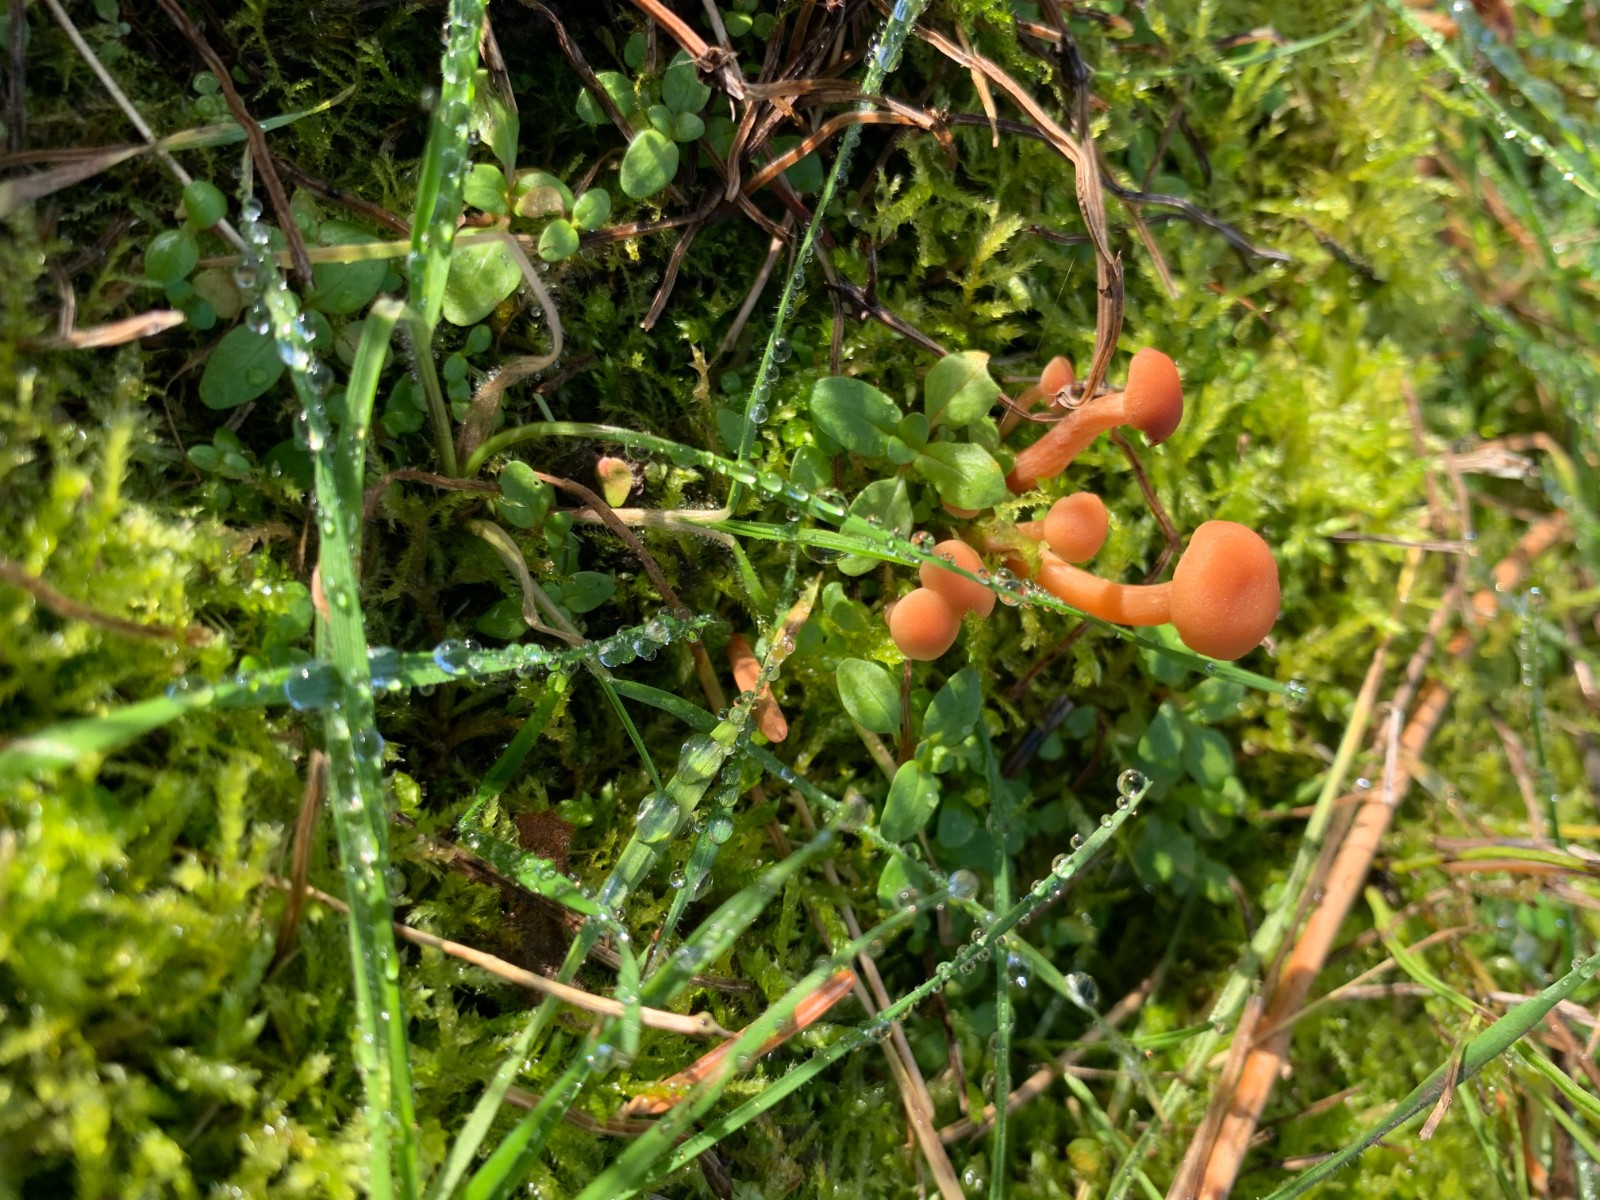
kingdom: Fungi
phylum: Basidiomycota
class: Agaricomycetes
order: Agaricales
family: Hydnangiaceae
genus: Laccaria
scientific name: Laccaria laccata
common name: rød ametysthat
